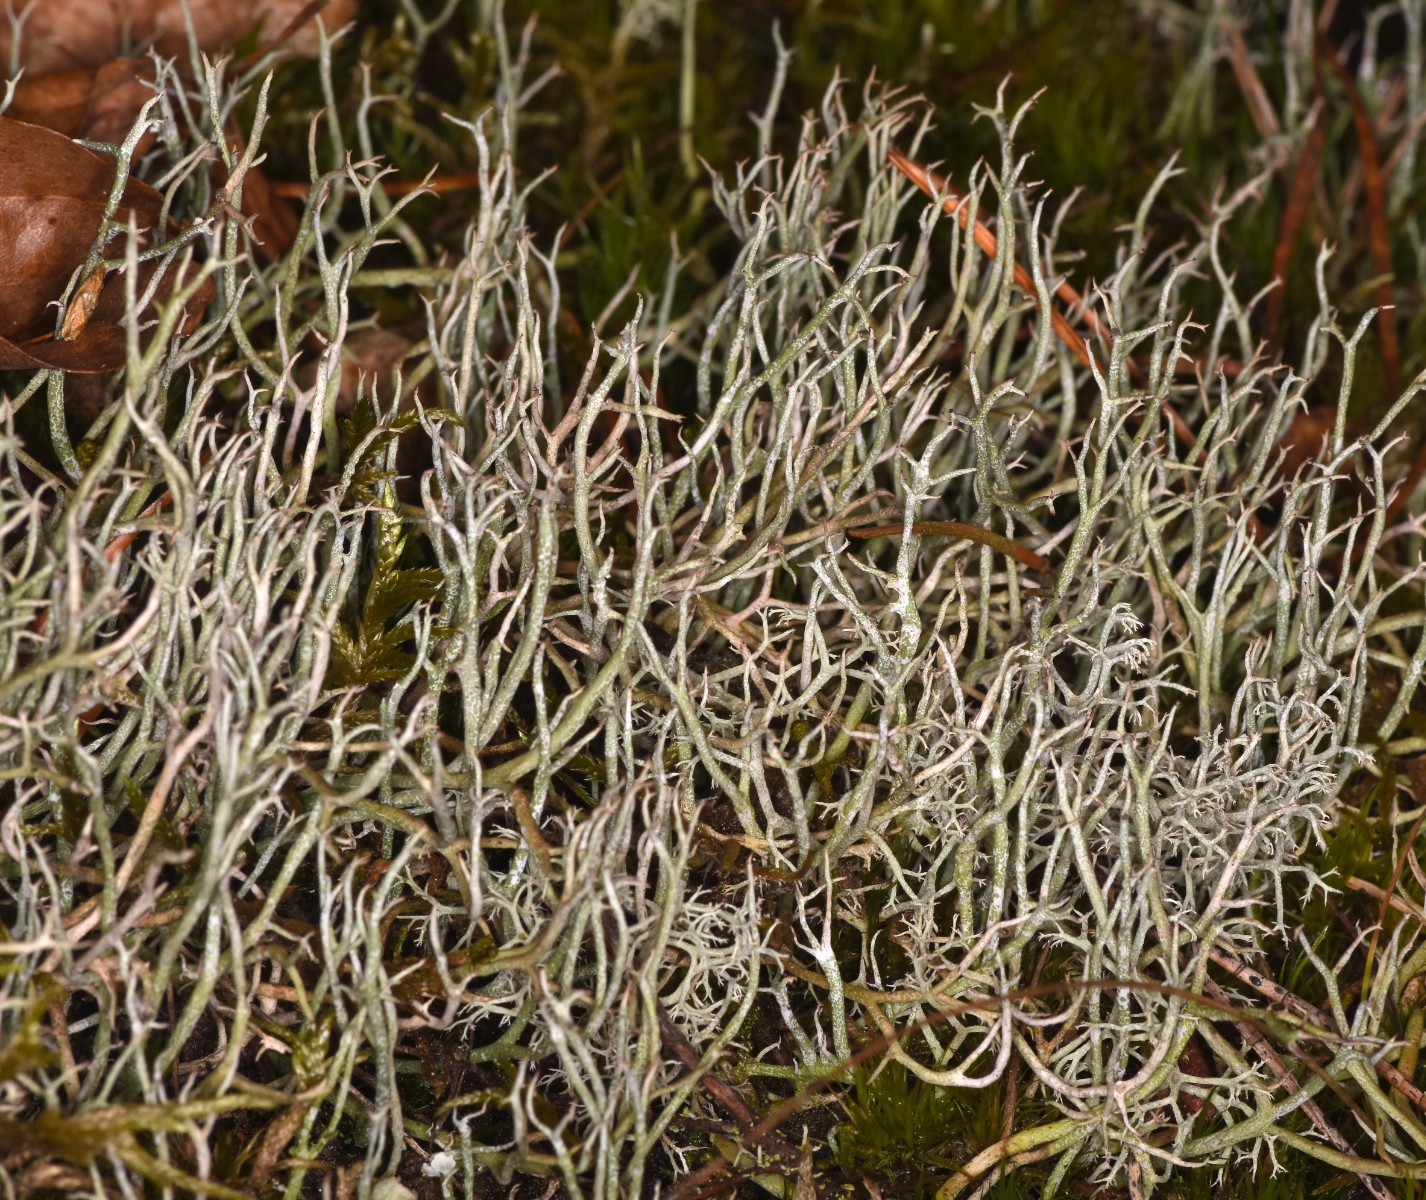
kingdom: Fungi
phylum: Ascomycota
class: Lecanoromycetes
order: Lecanorales
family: Cladoniaceae
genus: Cladonia
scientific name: Cladonia furcata
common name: kløftet bægerlav
